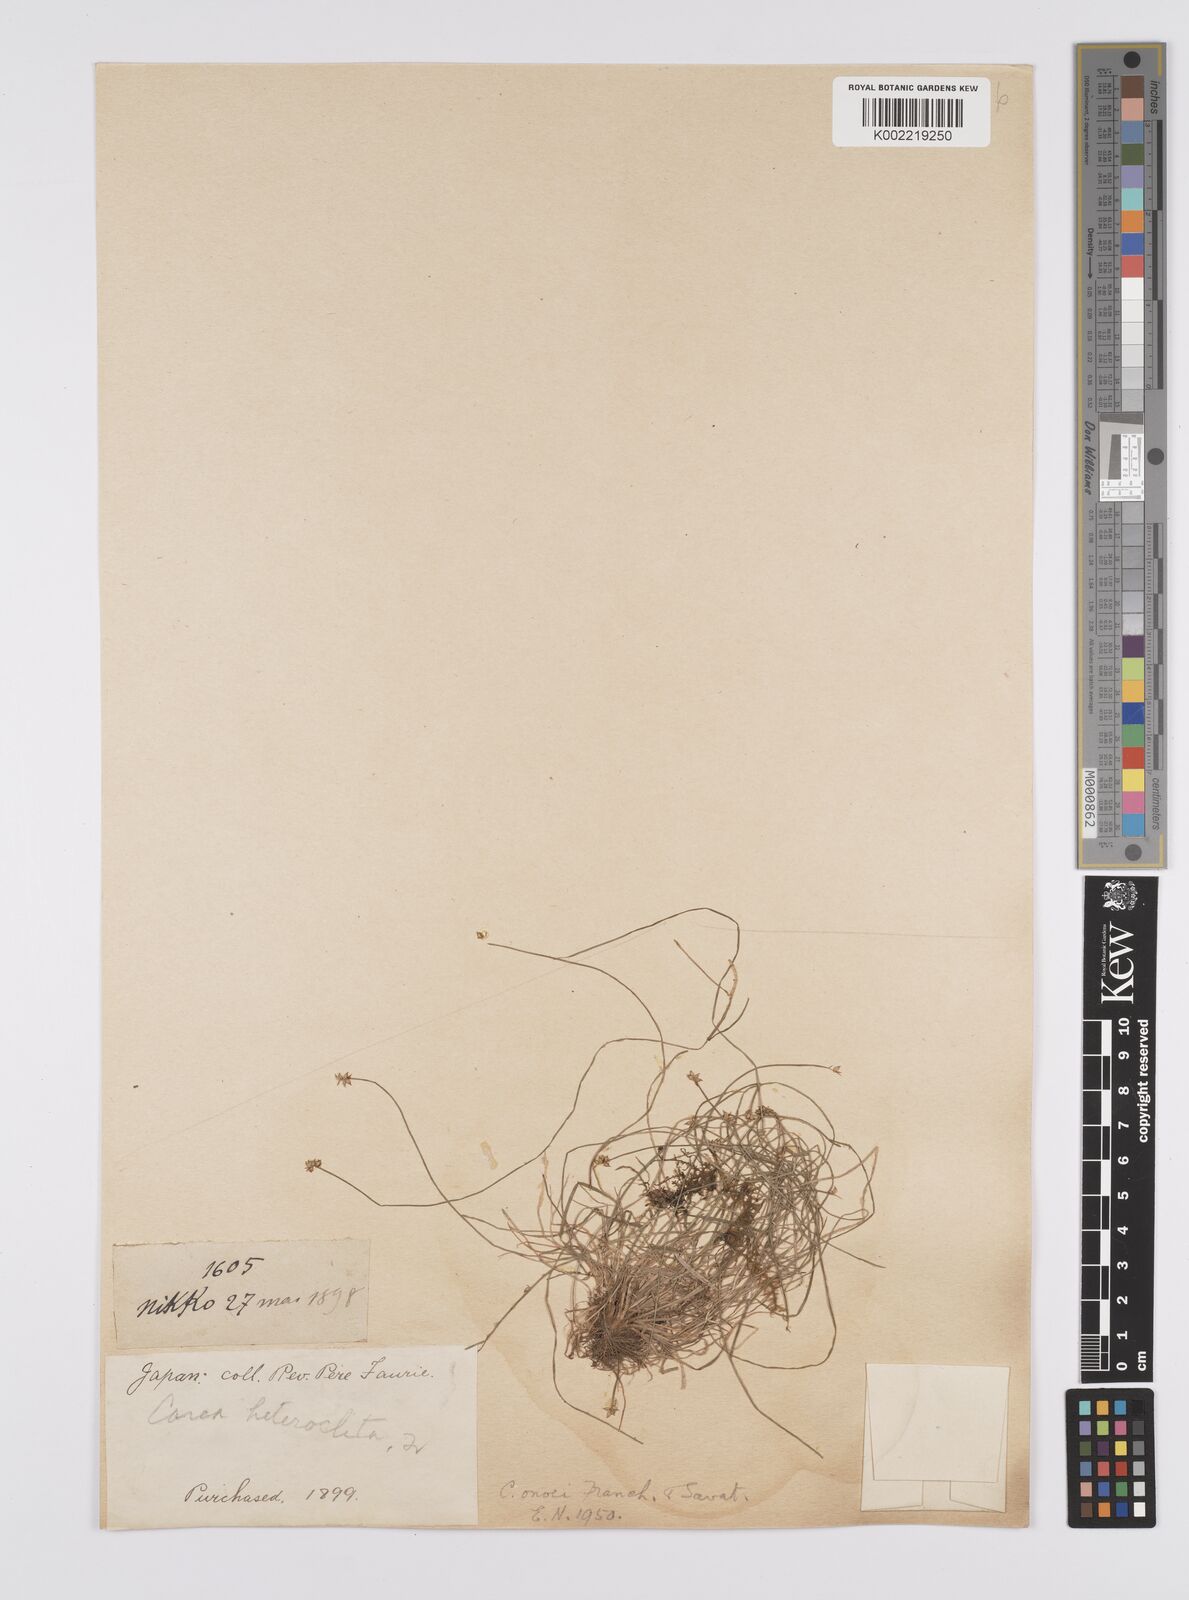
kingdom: Plantae
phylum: Tracheophyta
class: Liliopsida
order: Poales
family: Cyperaceae
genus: Carex
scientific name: Carex onoei
